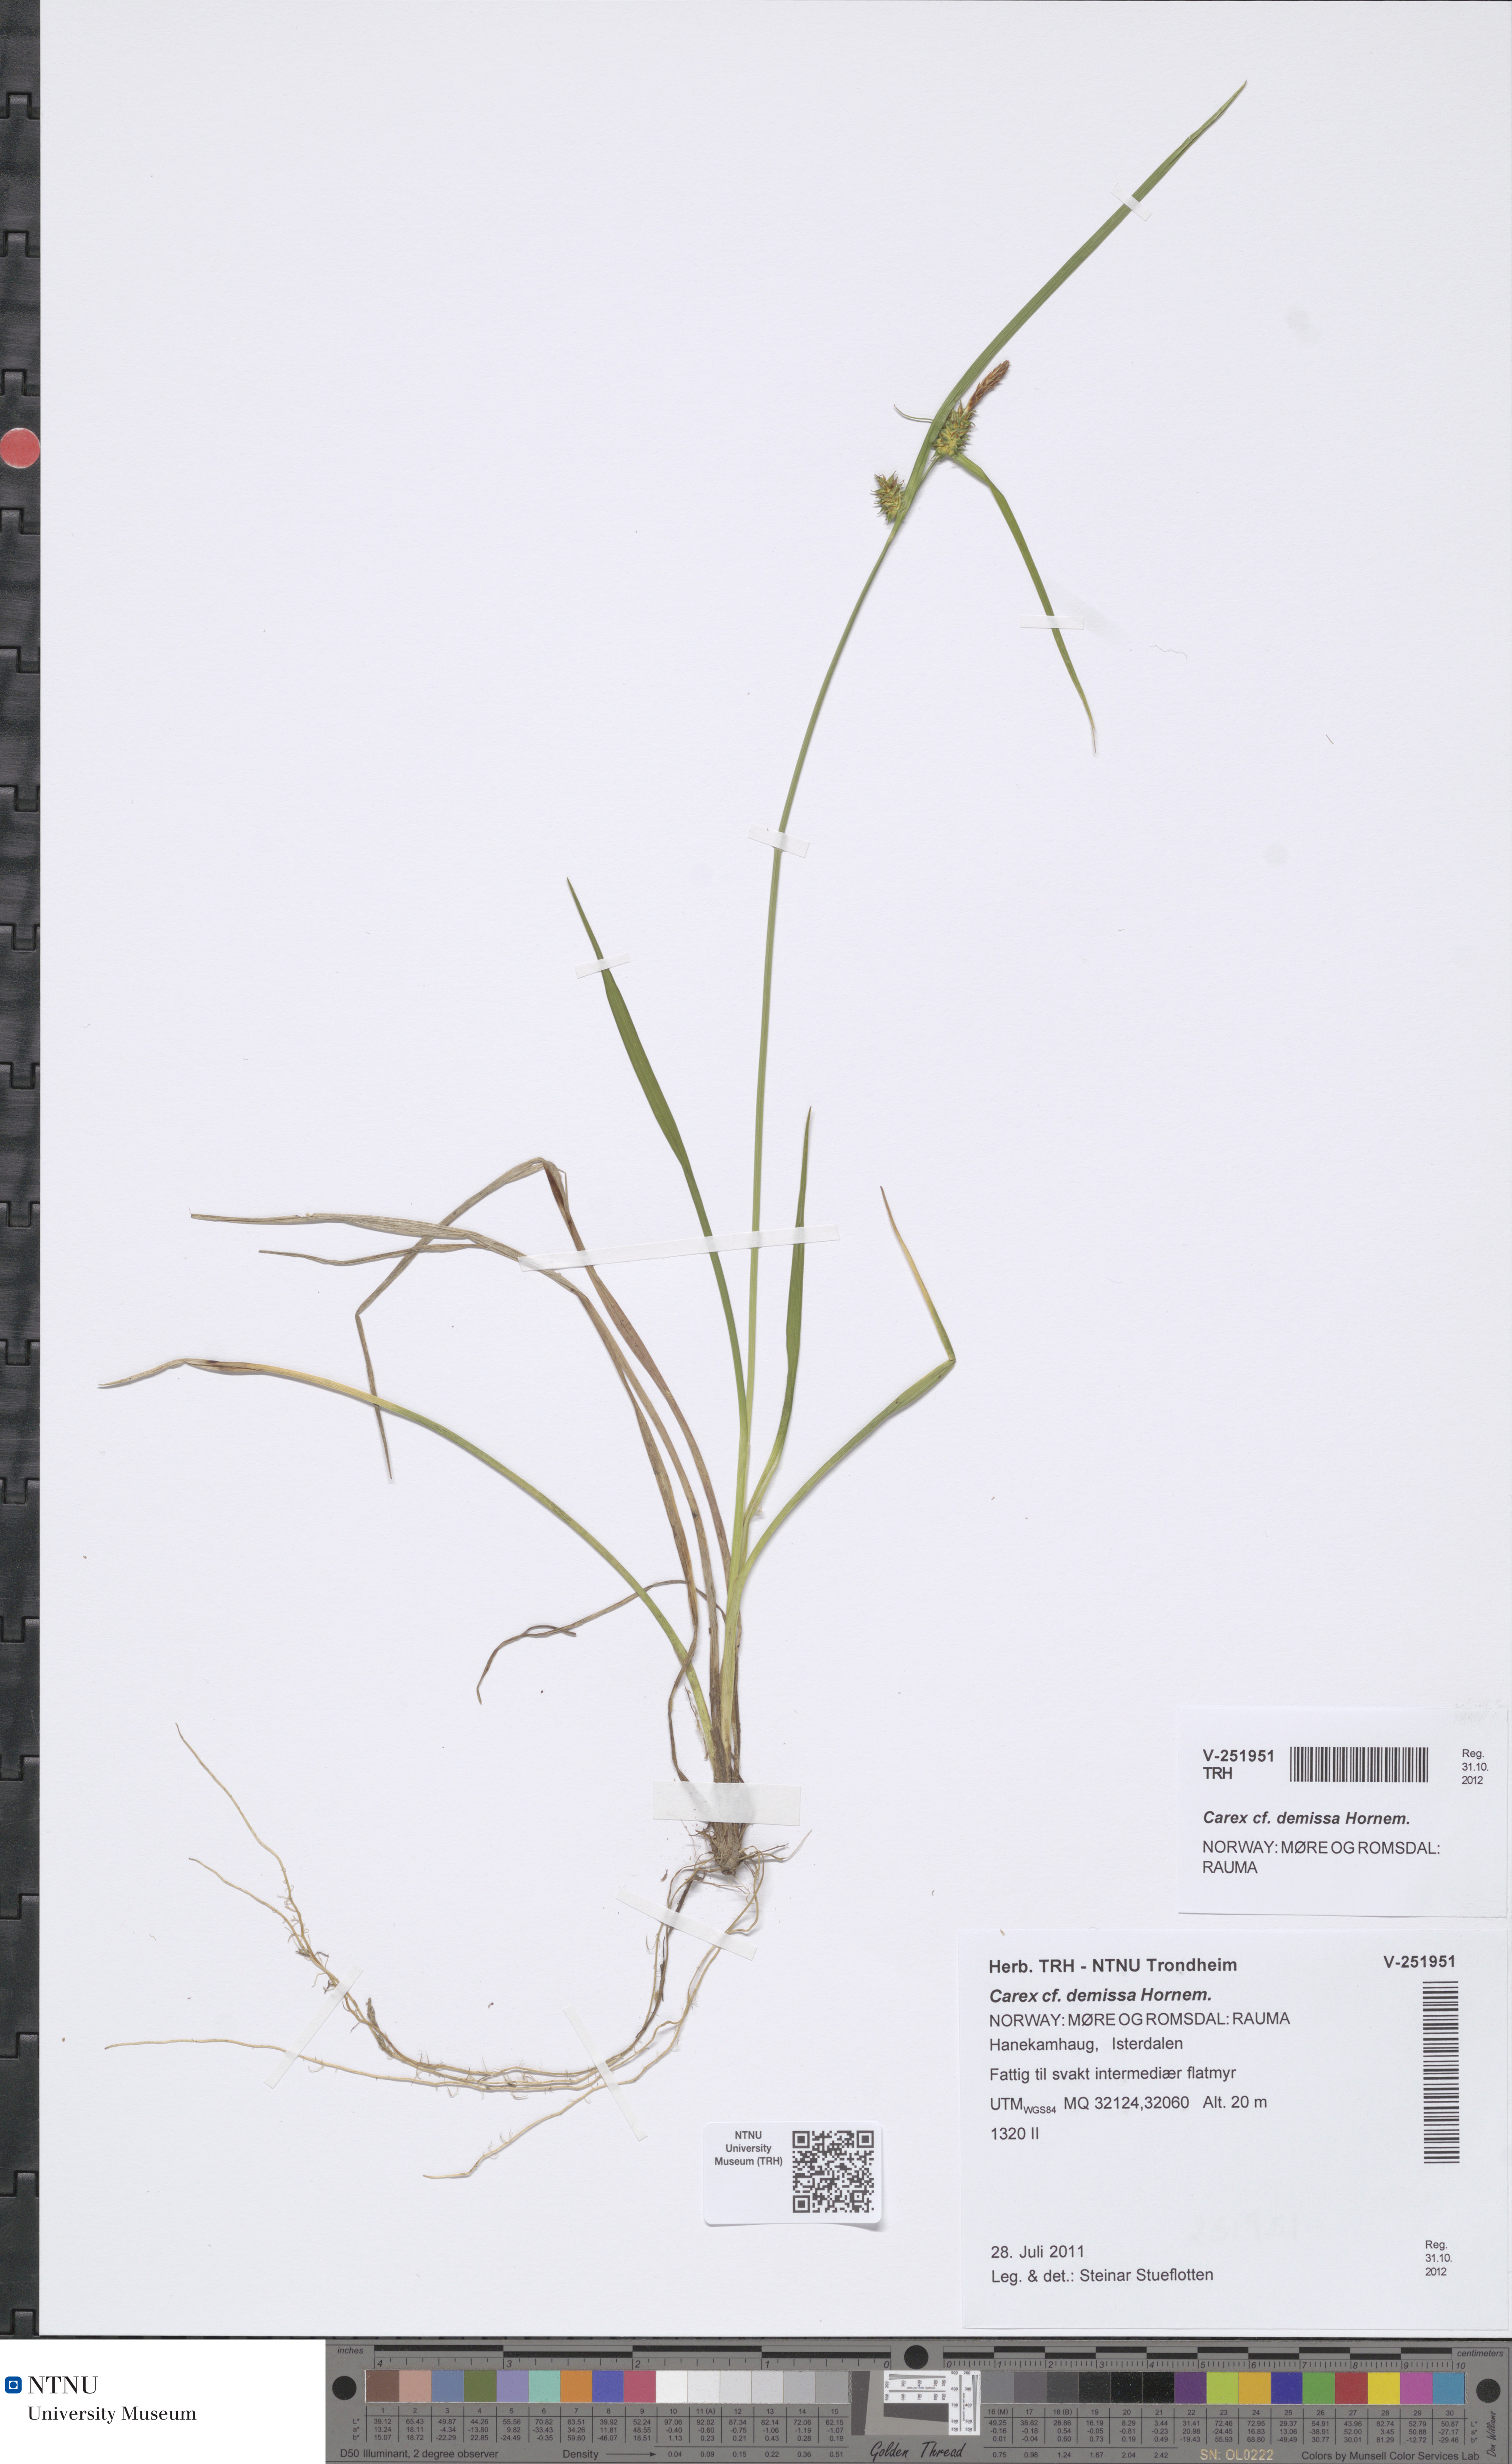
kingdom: Plantae
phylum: Tracheophyta
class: Liliopsida
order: Poales
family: Cyperaceae
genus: Carex
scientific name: Carex demissa
